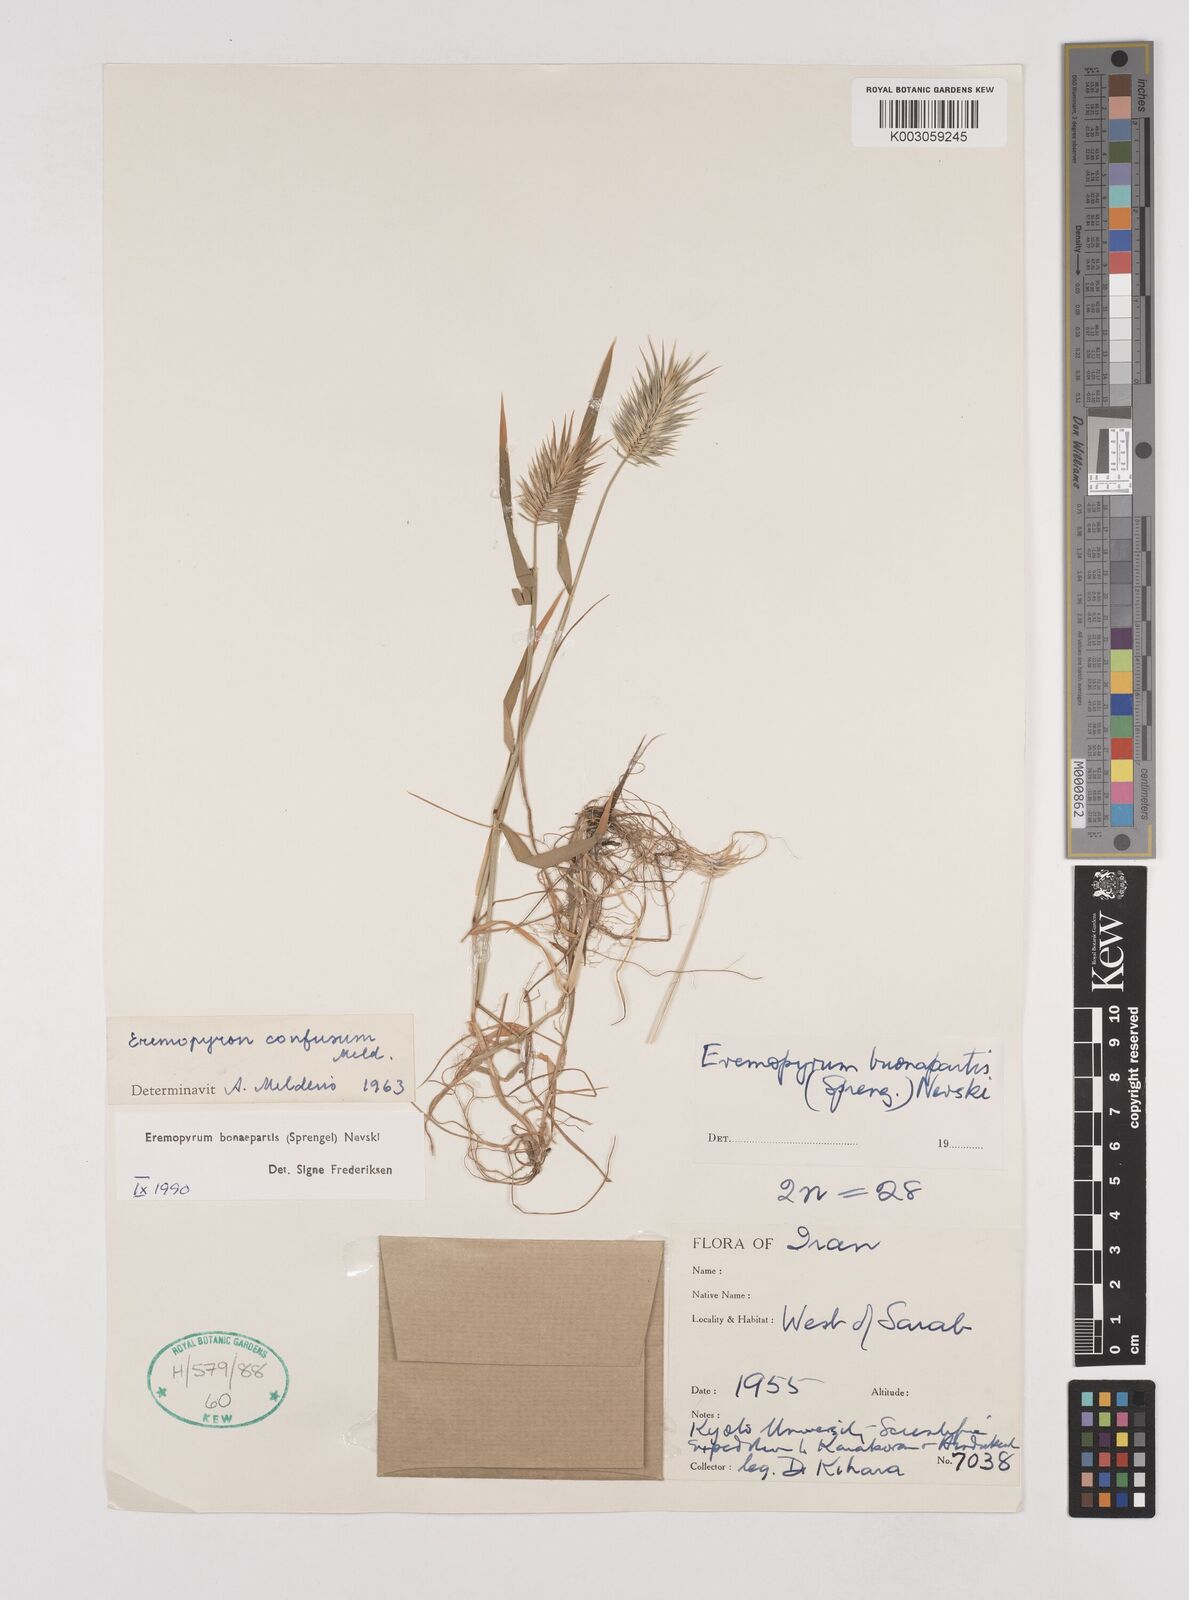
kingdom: Plantae
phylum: Tracheophyta
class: Liliopsida
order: Poales
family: Poaceae
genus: Eremopyrum
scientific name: Eremopyrum bonaepartis
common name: Tapertip false wheatgrass
